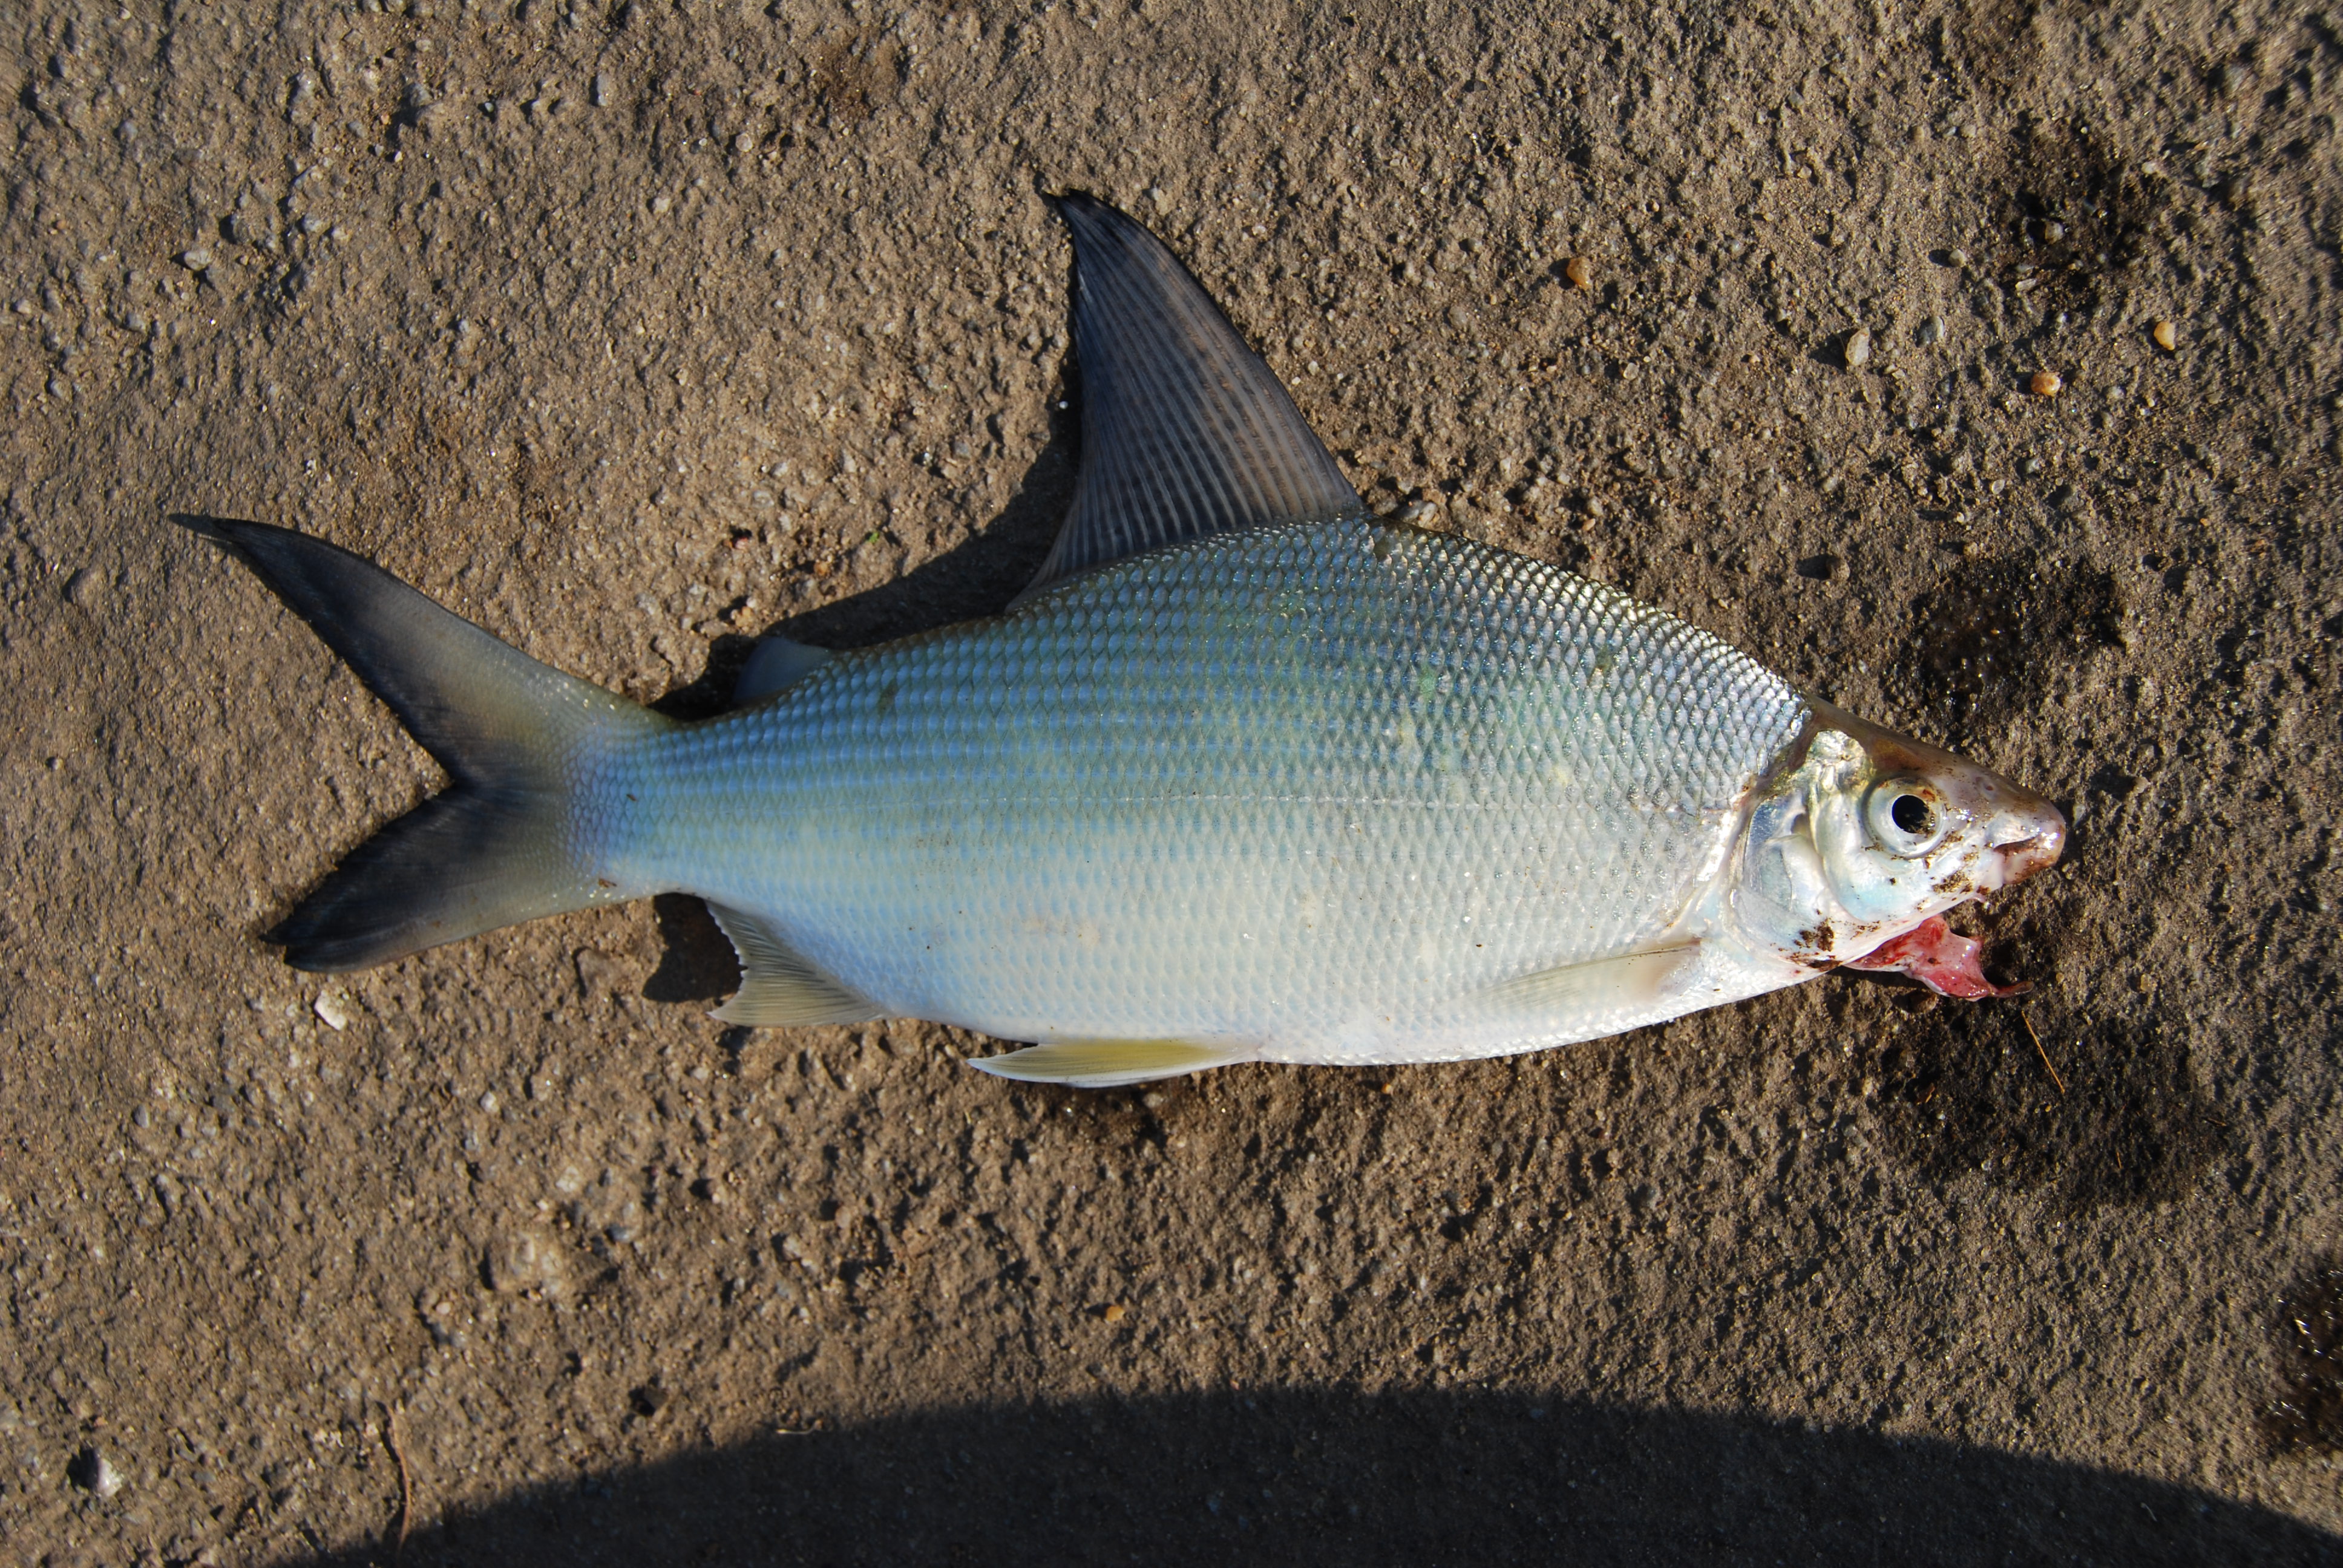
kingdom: Animalia
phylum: Chordata
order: Characiformes
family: Distichodontidae
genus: Distichodus
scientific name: Distichodus schenga
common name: Chessa
